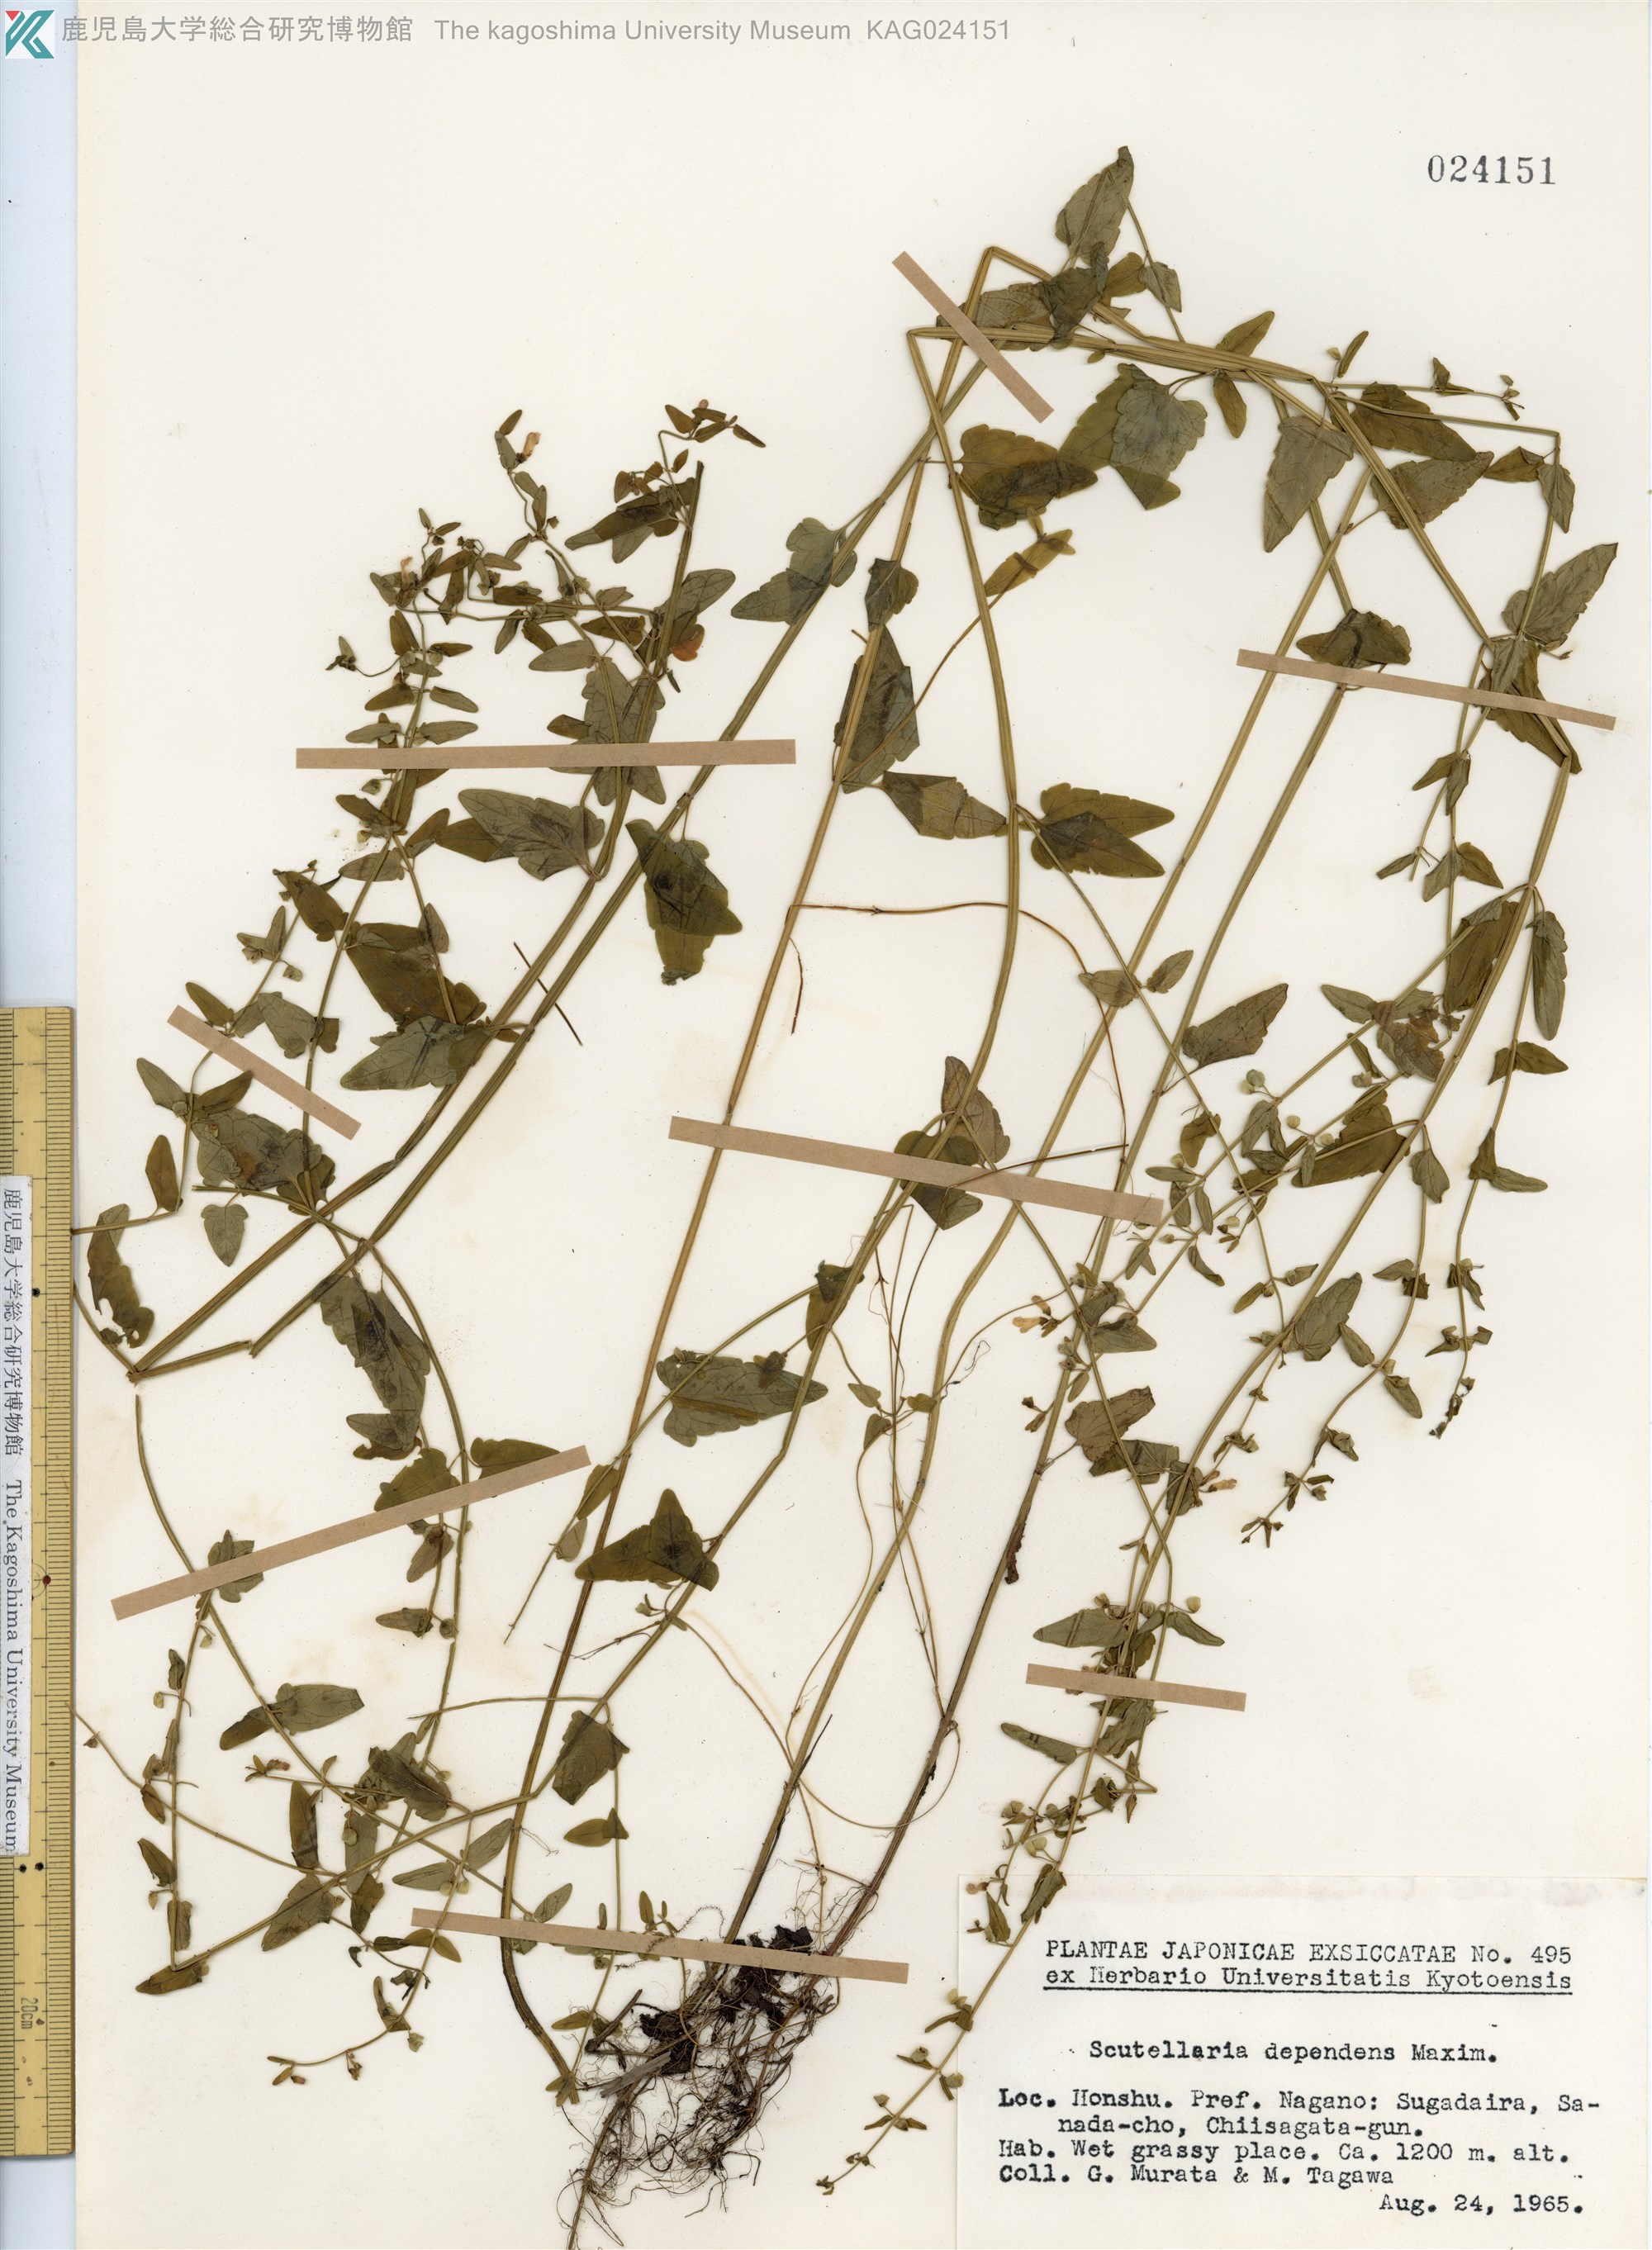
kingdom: Plantae
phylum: Tracheophyta
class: Magnoliopsida
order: Lamiales
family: Lamiaceae
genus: Scutellaria
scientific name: Scutellaria dependens
